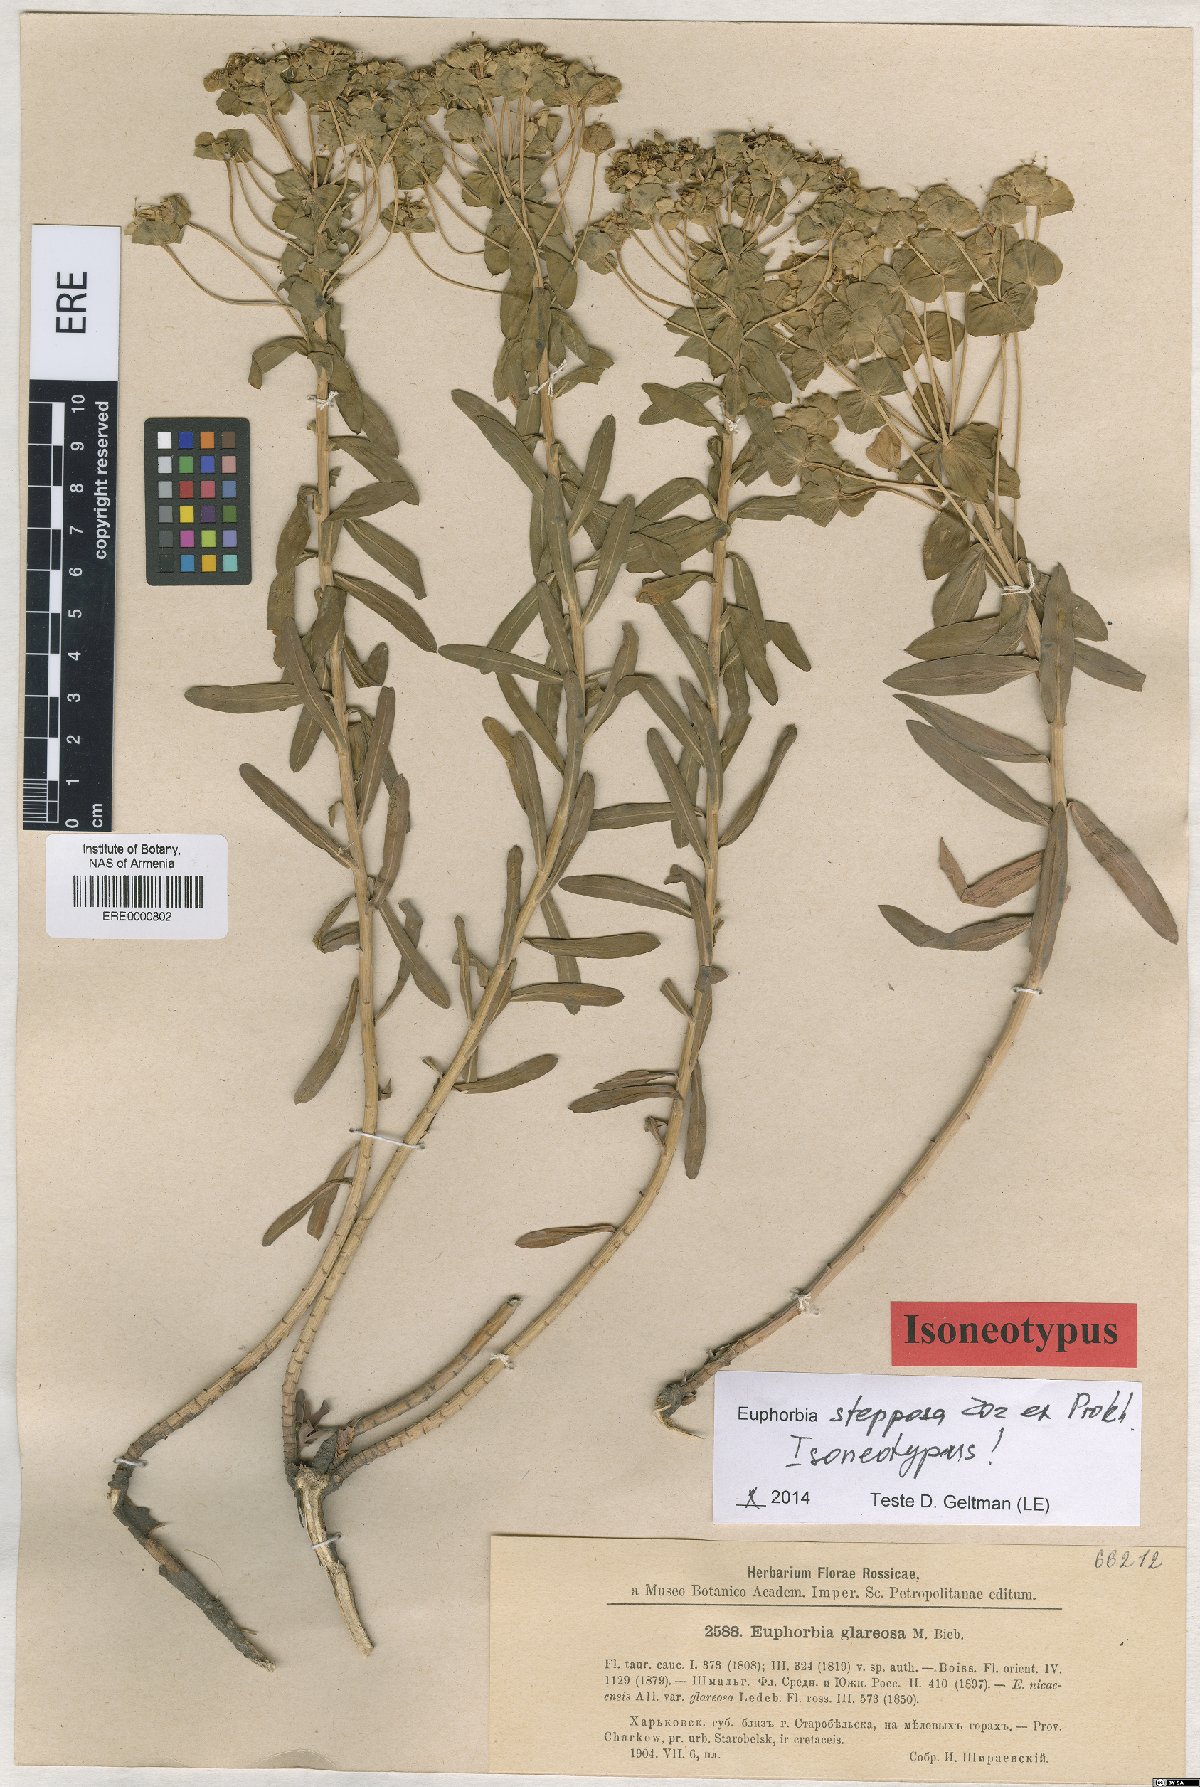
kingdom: Plantae
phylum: Tracheophyta
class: Magnoliopsida
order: Malpighiales
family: Euphorbiaceae
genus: Euphorbia
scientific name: Euphorbia stepposa
